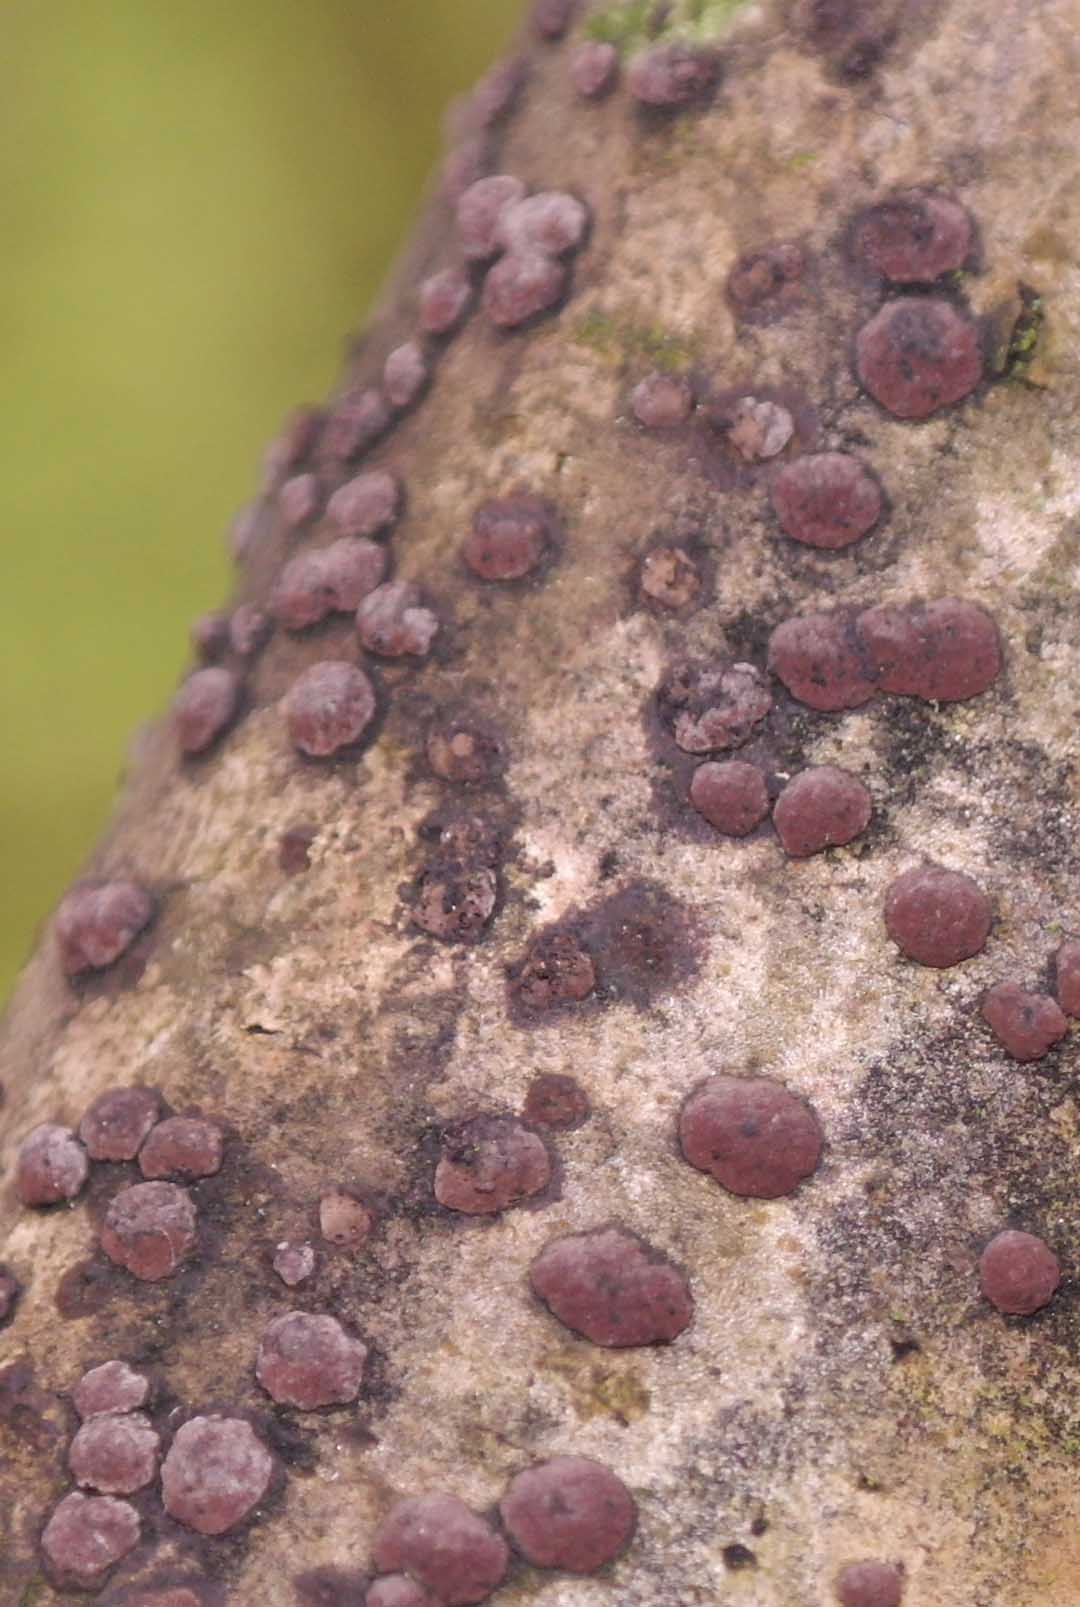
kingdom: Fungi
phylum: Ascomycota
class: Sordariomycetes
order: Xylariales
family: Hypoxylaceae
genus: Hypoxylon
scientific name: Hypoxylon fuscum
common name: kegleformet kulbær
